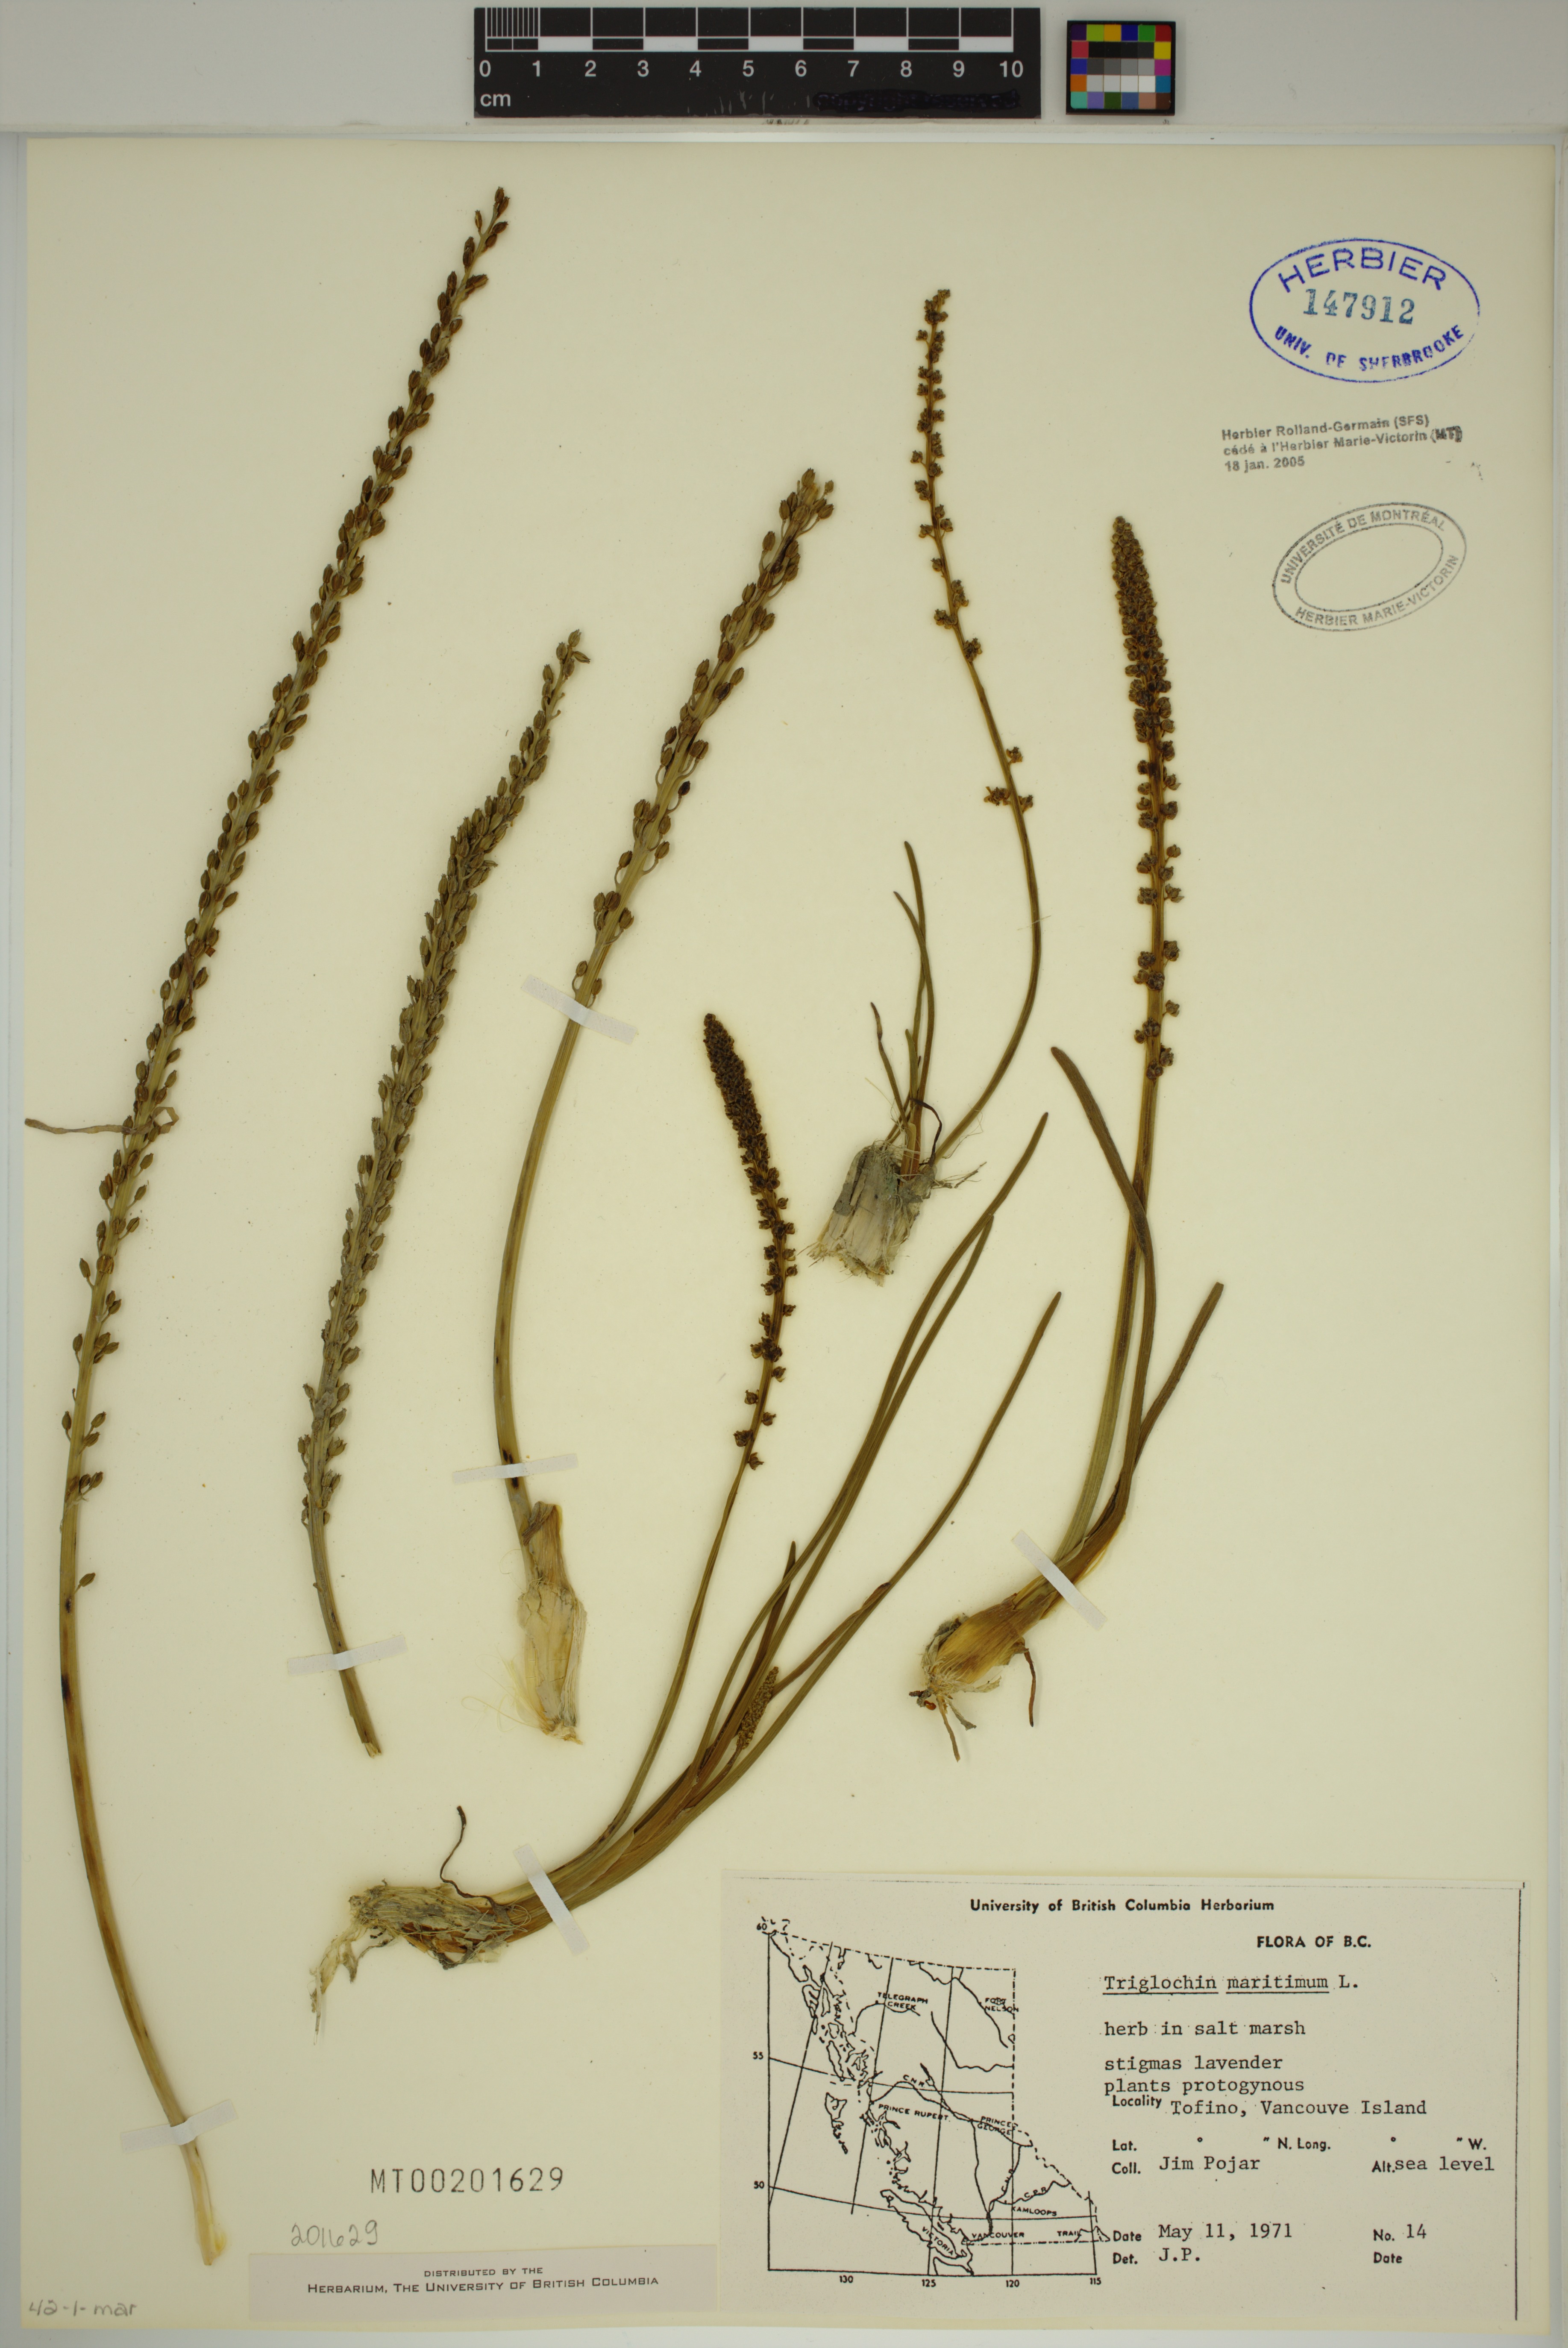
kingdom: Plantae
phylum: Tracheophyta
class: Liliopsida
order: Alismatales
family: Juncaginaceae
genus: Triglochin
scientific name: Triglochin maritima
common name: Sea arrowgrass
